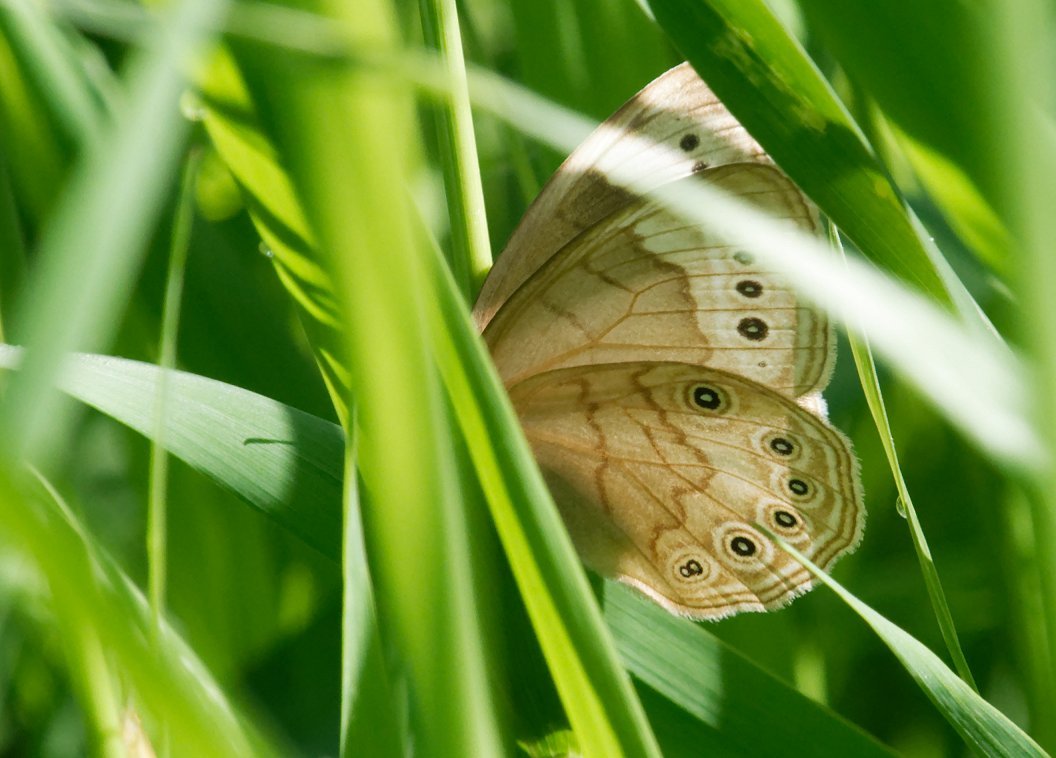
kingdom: Animalia
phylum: Arthropoda
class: Insecta
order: Lepidoptera
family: Nymphalidae
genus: Lethe
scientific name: Lethe eurydice
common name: Eyed Brown
